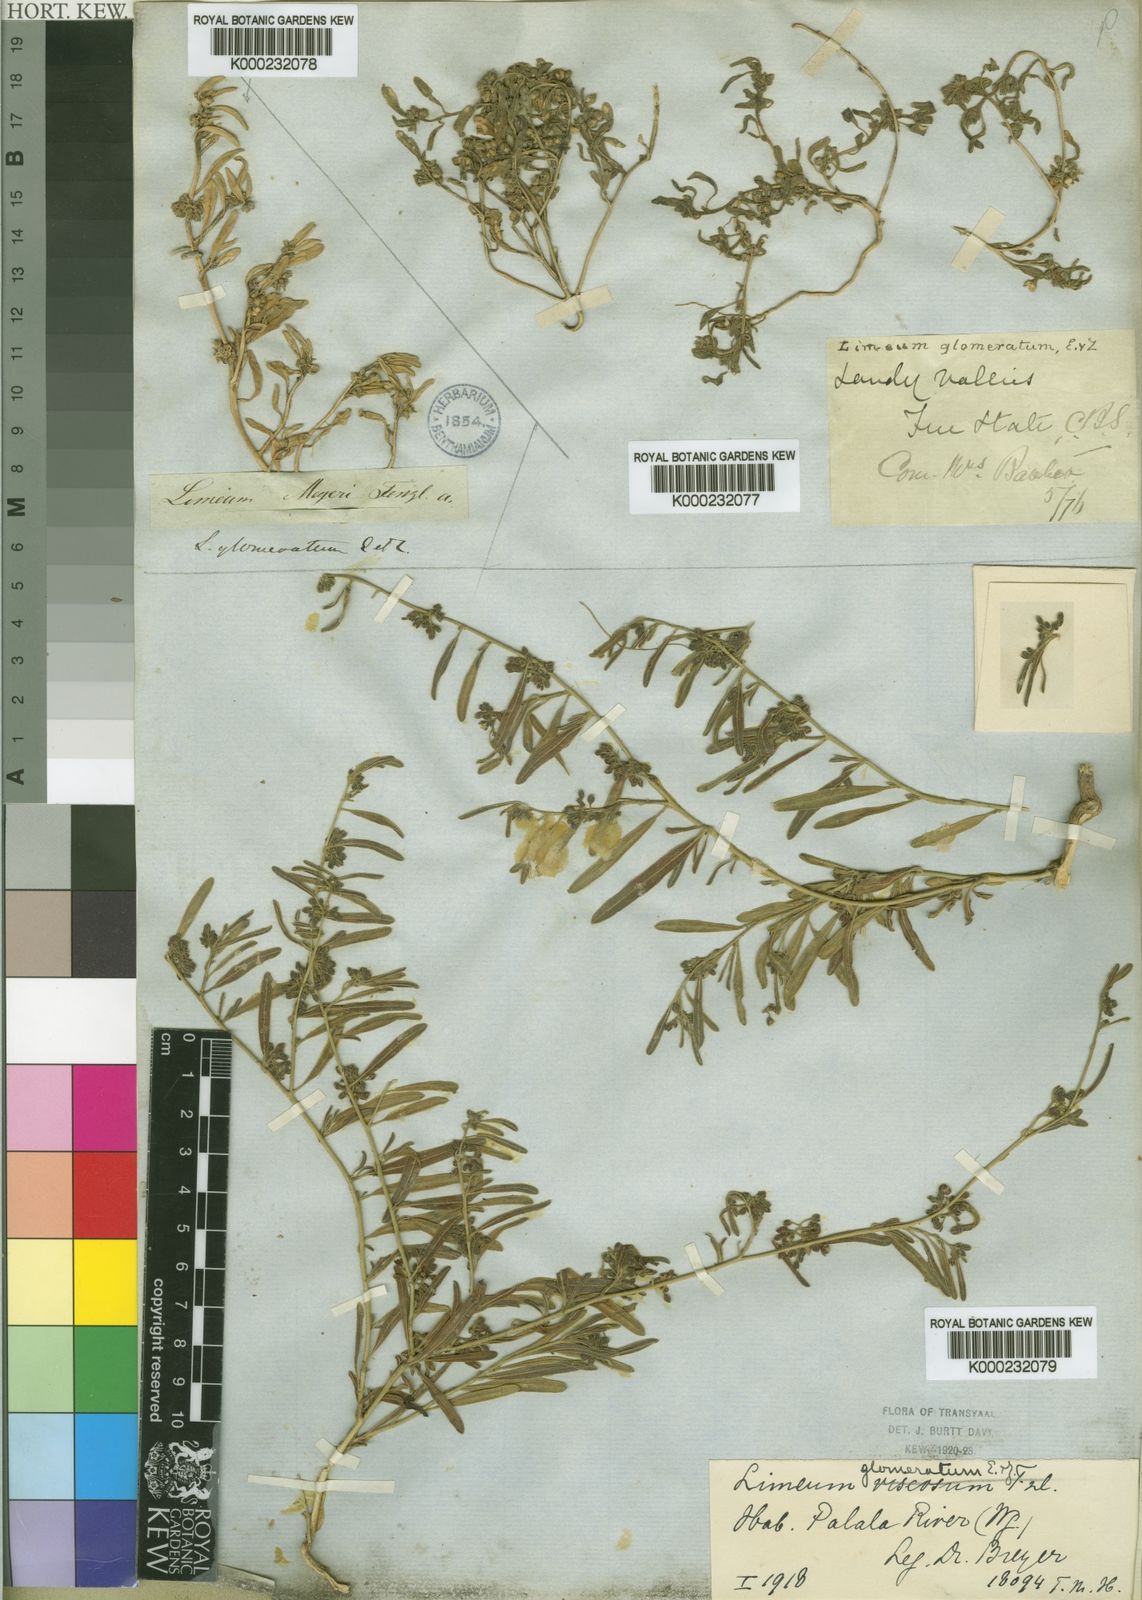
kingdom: Plantae
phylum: Tracheophyta
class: Magnoliopsida
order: Caryophyllales
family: Limeaceae
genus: Limeum
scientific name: Limeum
